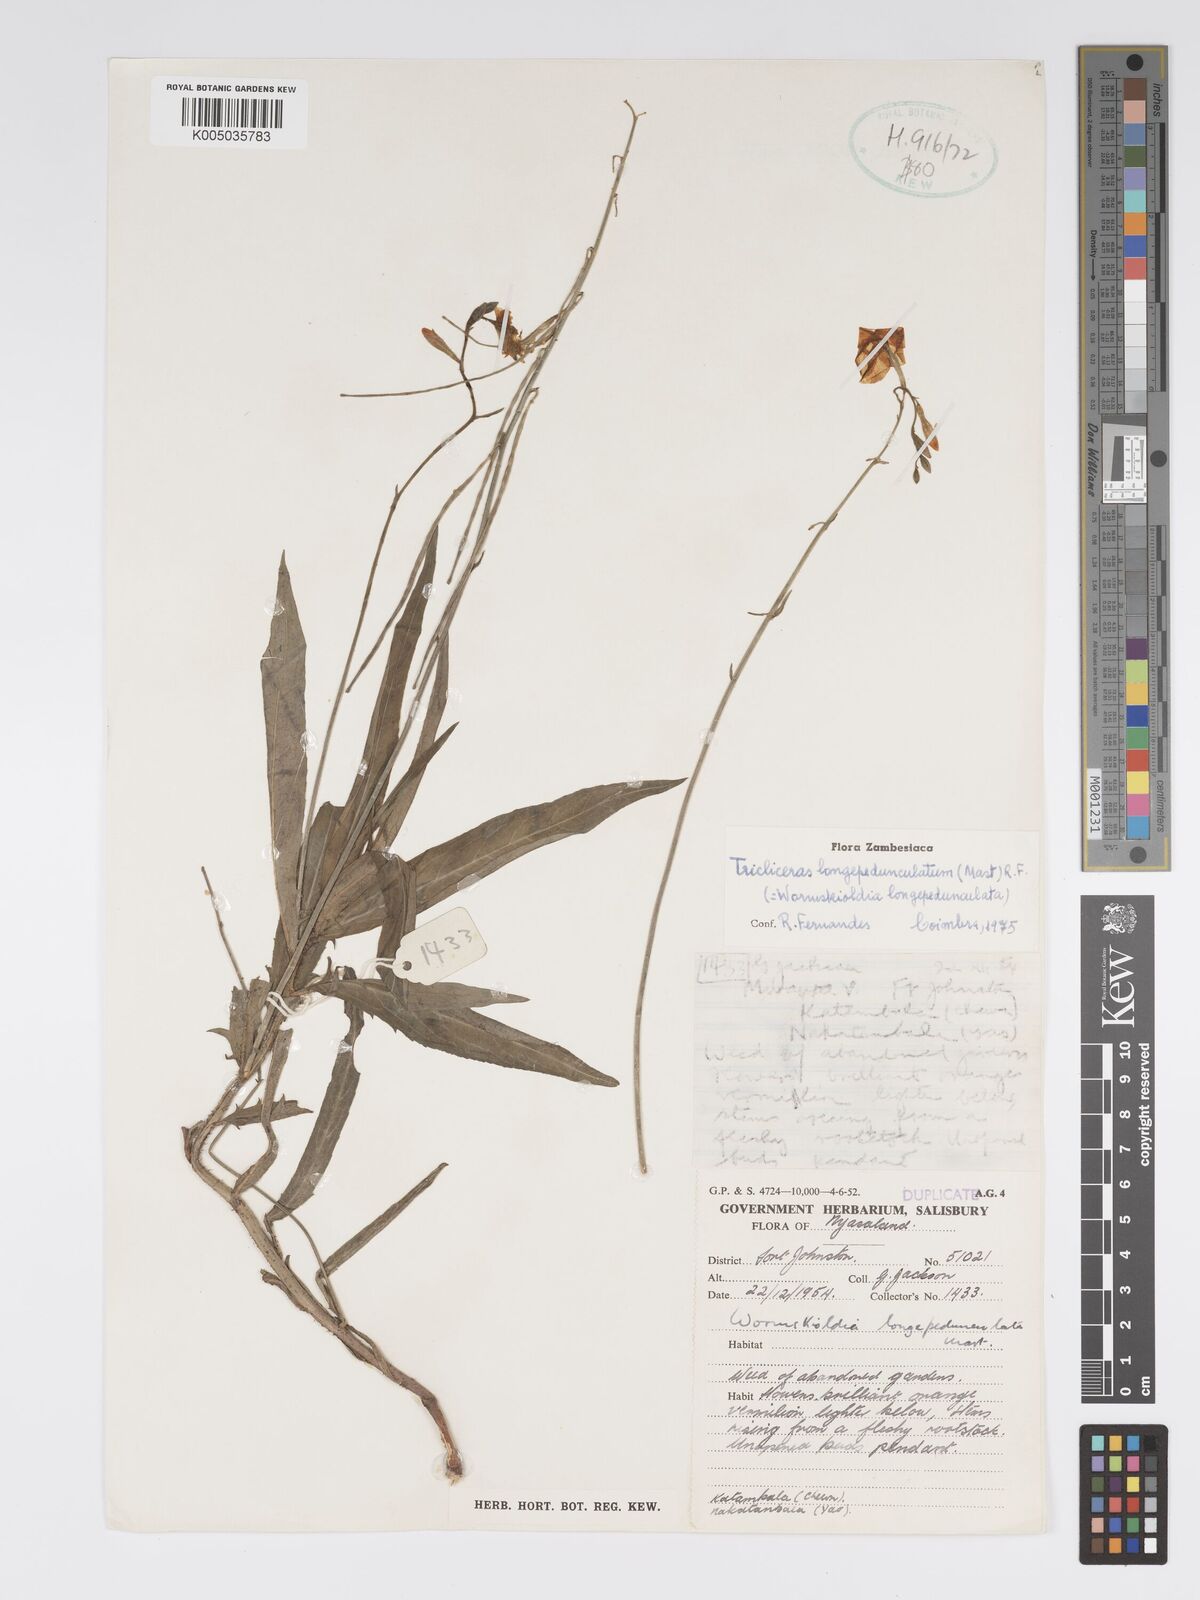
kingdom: Plantae
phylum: Tracheophyta
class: Magnoliopsida
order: Malpighiales
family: Turneraceae
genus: Tricliceras
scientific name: Tricliceras longepedunculatum
